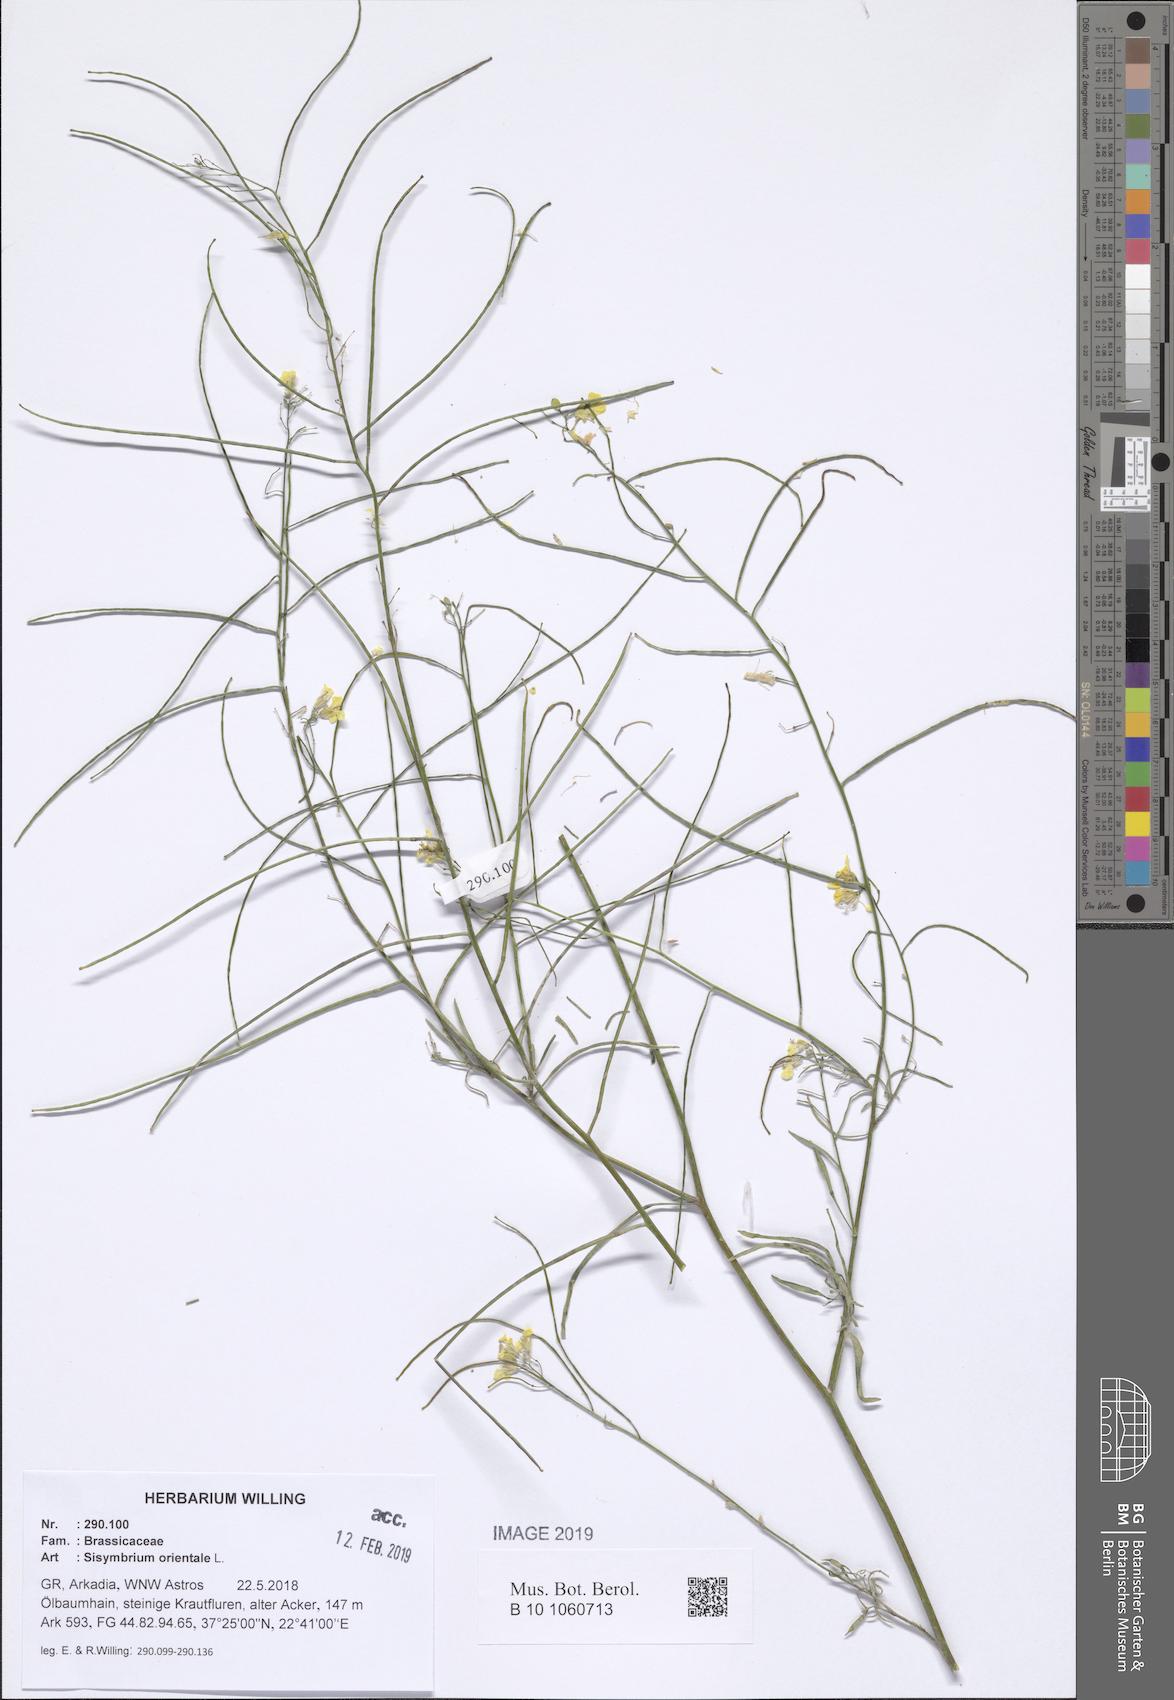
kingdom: Plantae
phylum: Tracheophyta
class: Magnoliopsida
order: Brassicales
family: Brassicaceae
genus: Sisymbrium
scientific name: Sisymbrium orientale
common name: Eastern rocket
